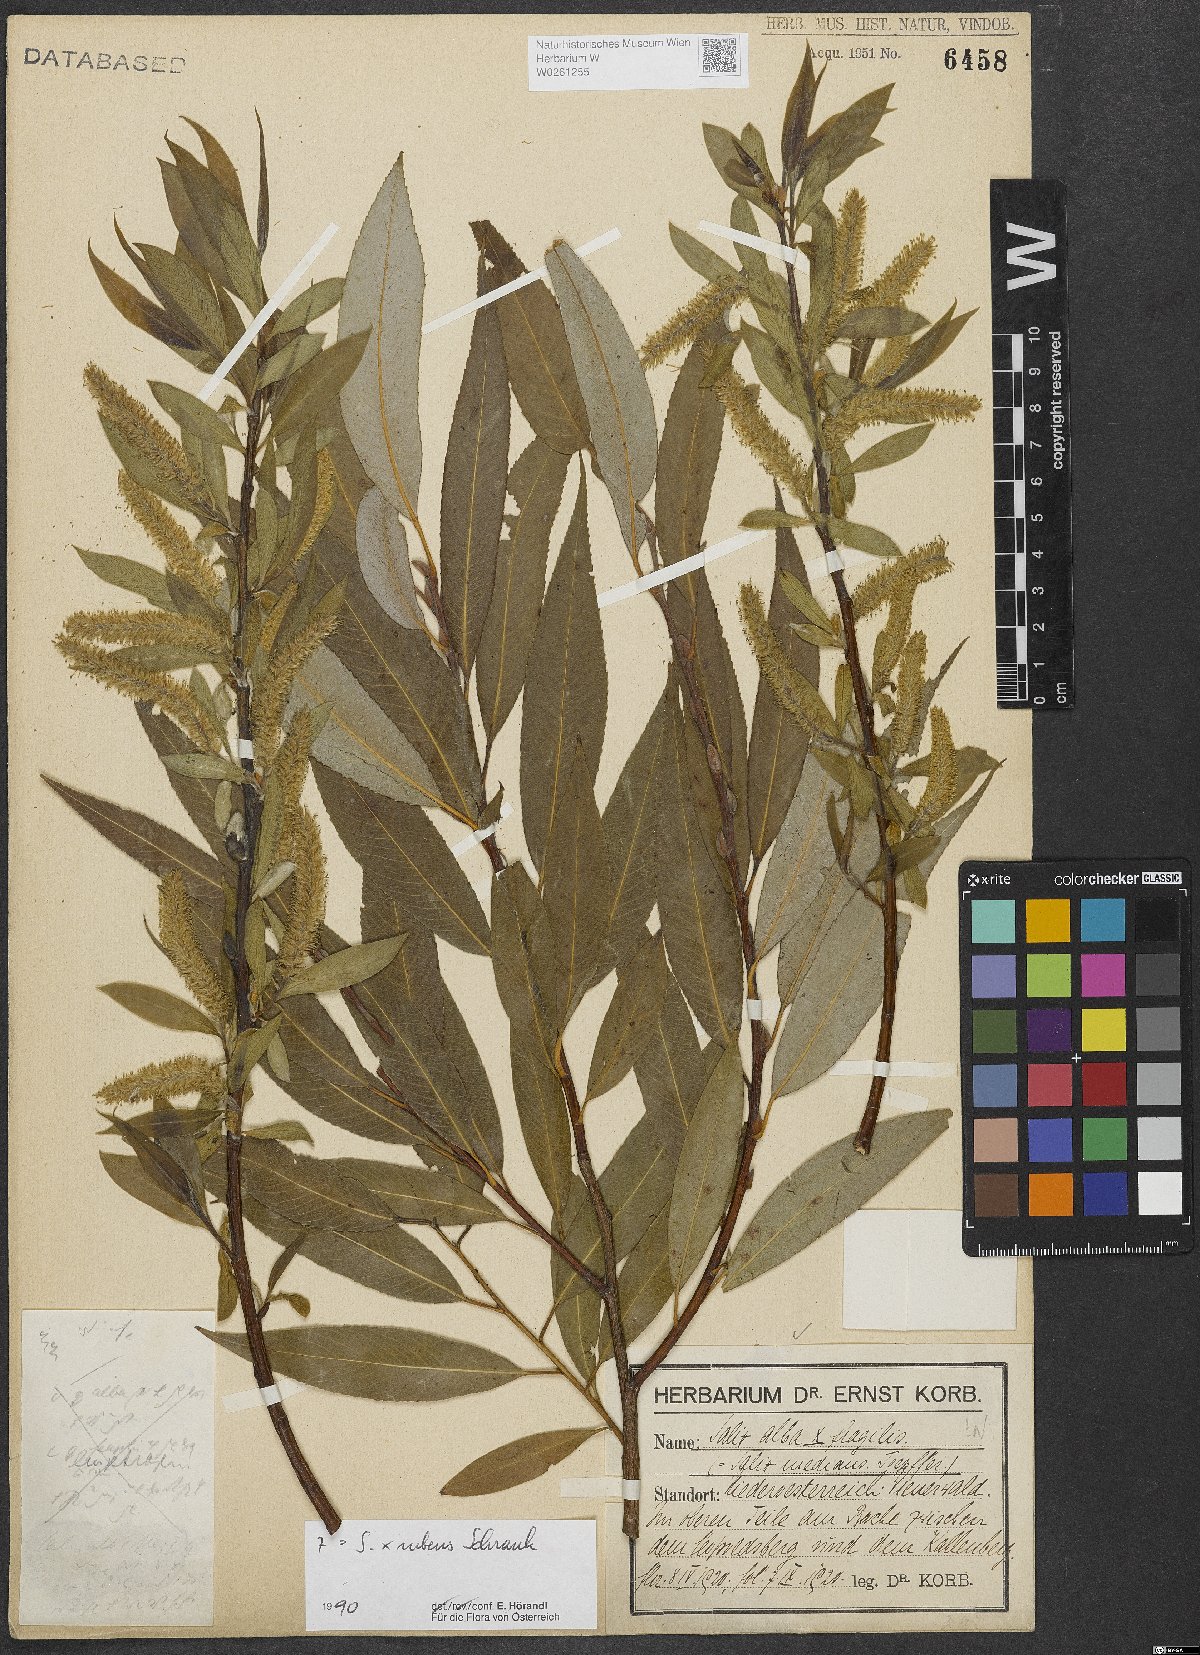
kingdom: Plantae
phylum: Tracheophyta
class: Magnoliopsida
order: Malpighiales
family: Salicaceae
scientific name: Salicaceae
